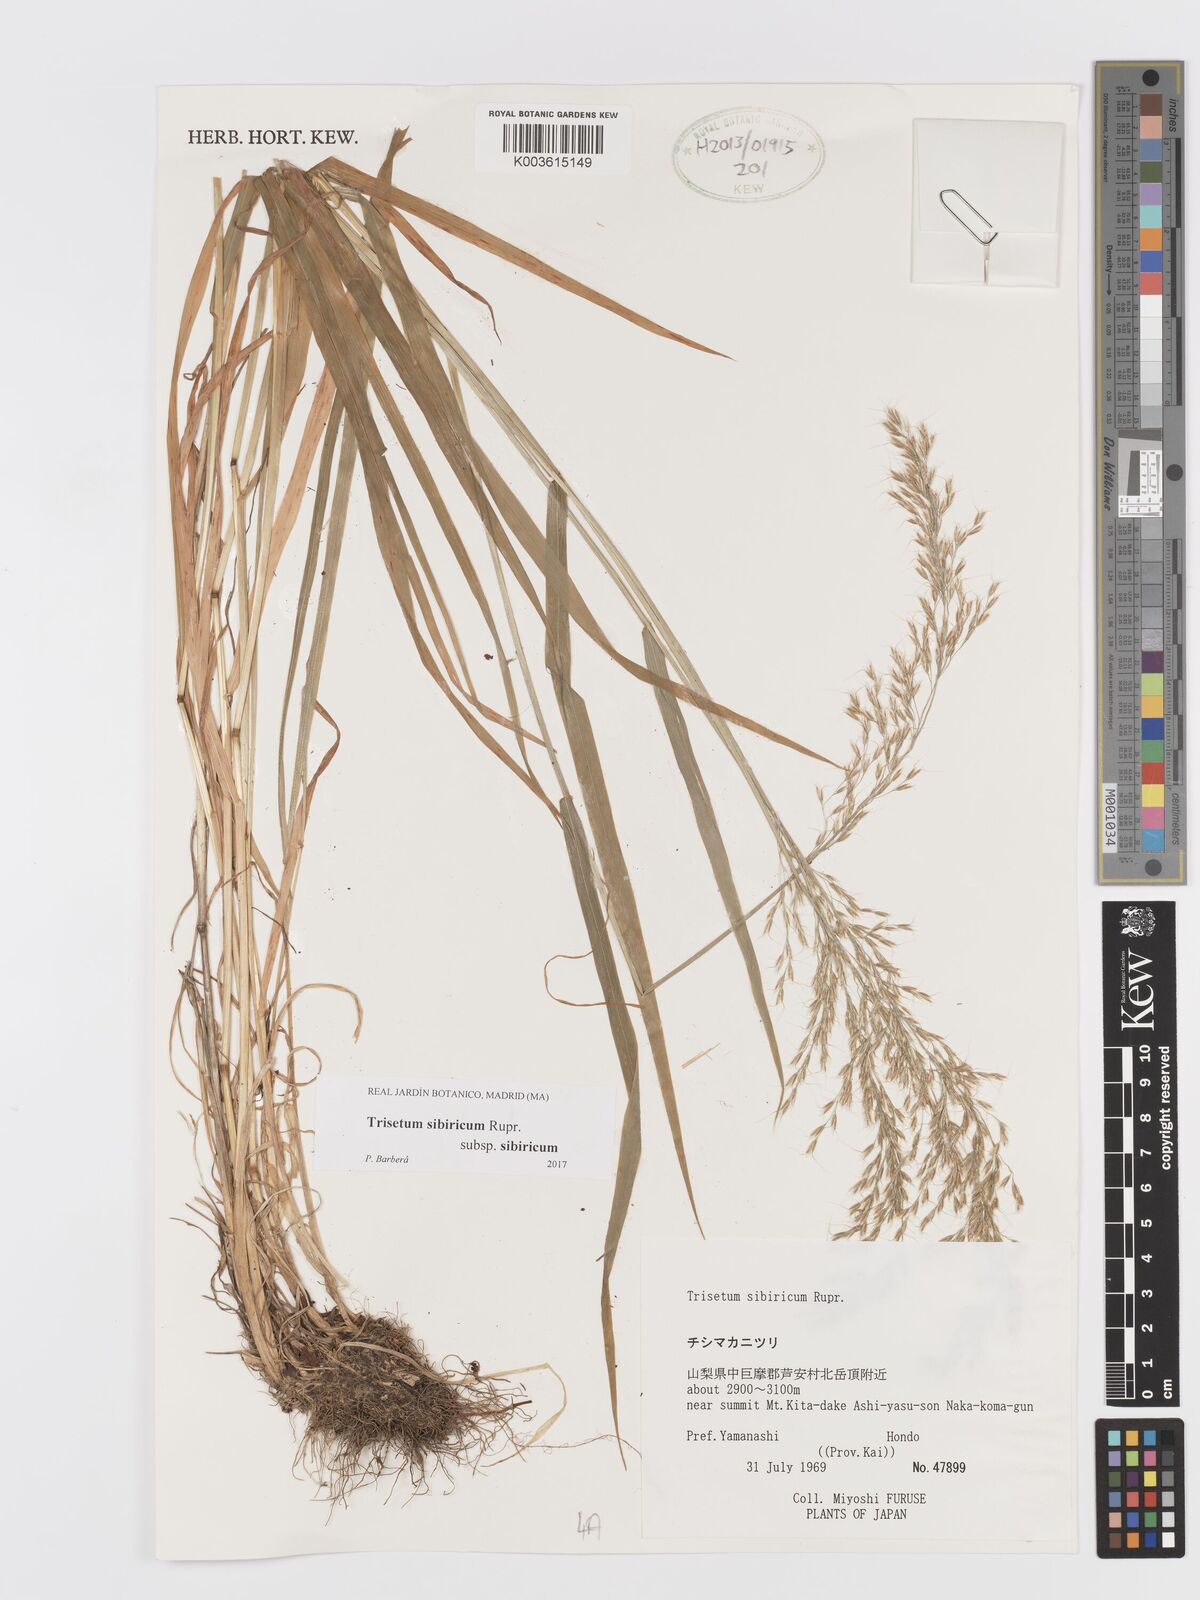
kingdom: Plantae
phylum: Tracheophyta
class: Liliopsida
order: Poales
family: Poaceae
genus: Sibirotrisetum
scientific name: Sibirotrisetum sibiricum
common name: Siberian false oat
